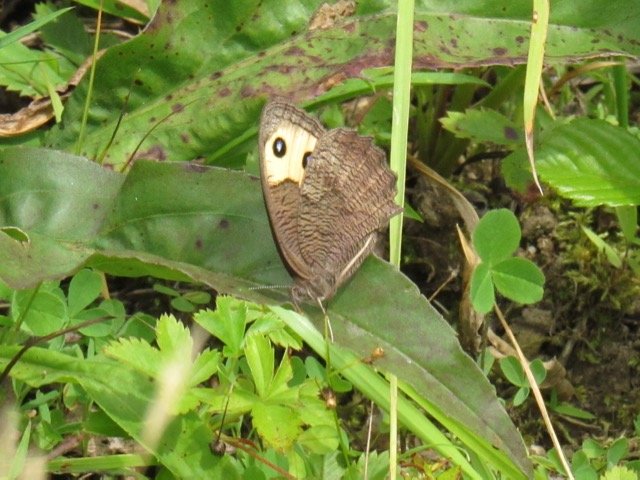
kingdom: Animalia
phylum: Arthropoda
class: Insecta
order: Lepidoptera
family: Nymphalidae
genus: Cercyonis
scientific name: Cercyonis pegala
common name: Common Wood-Nymph
